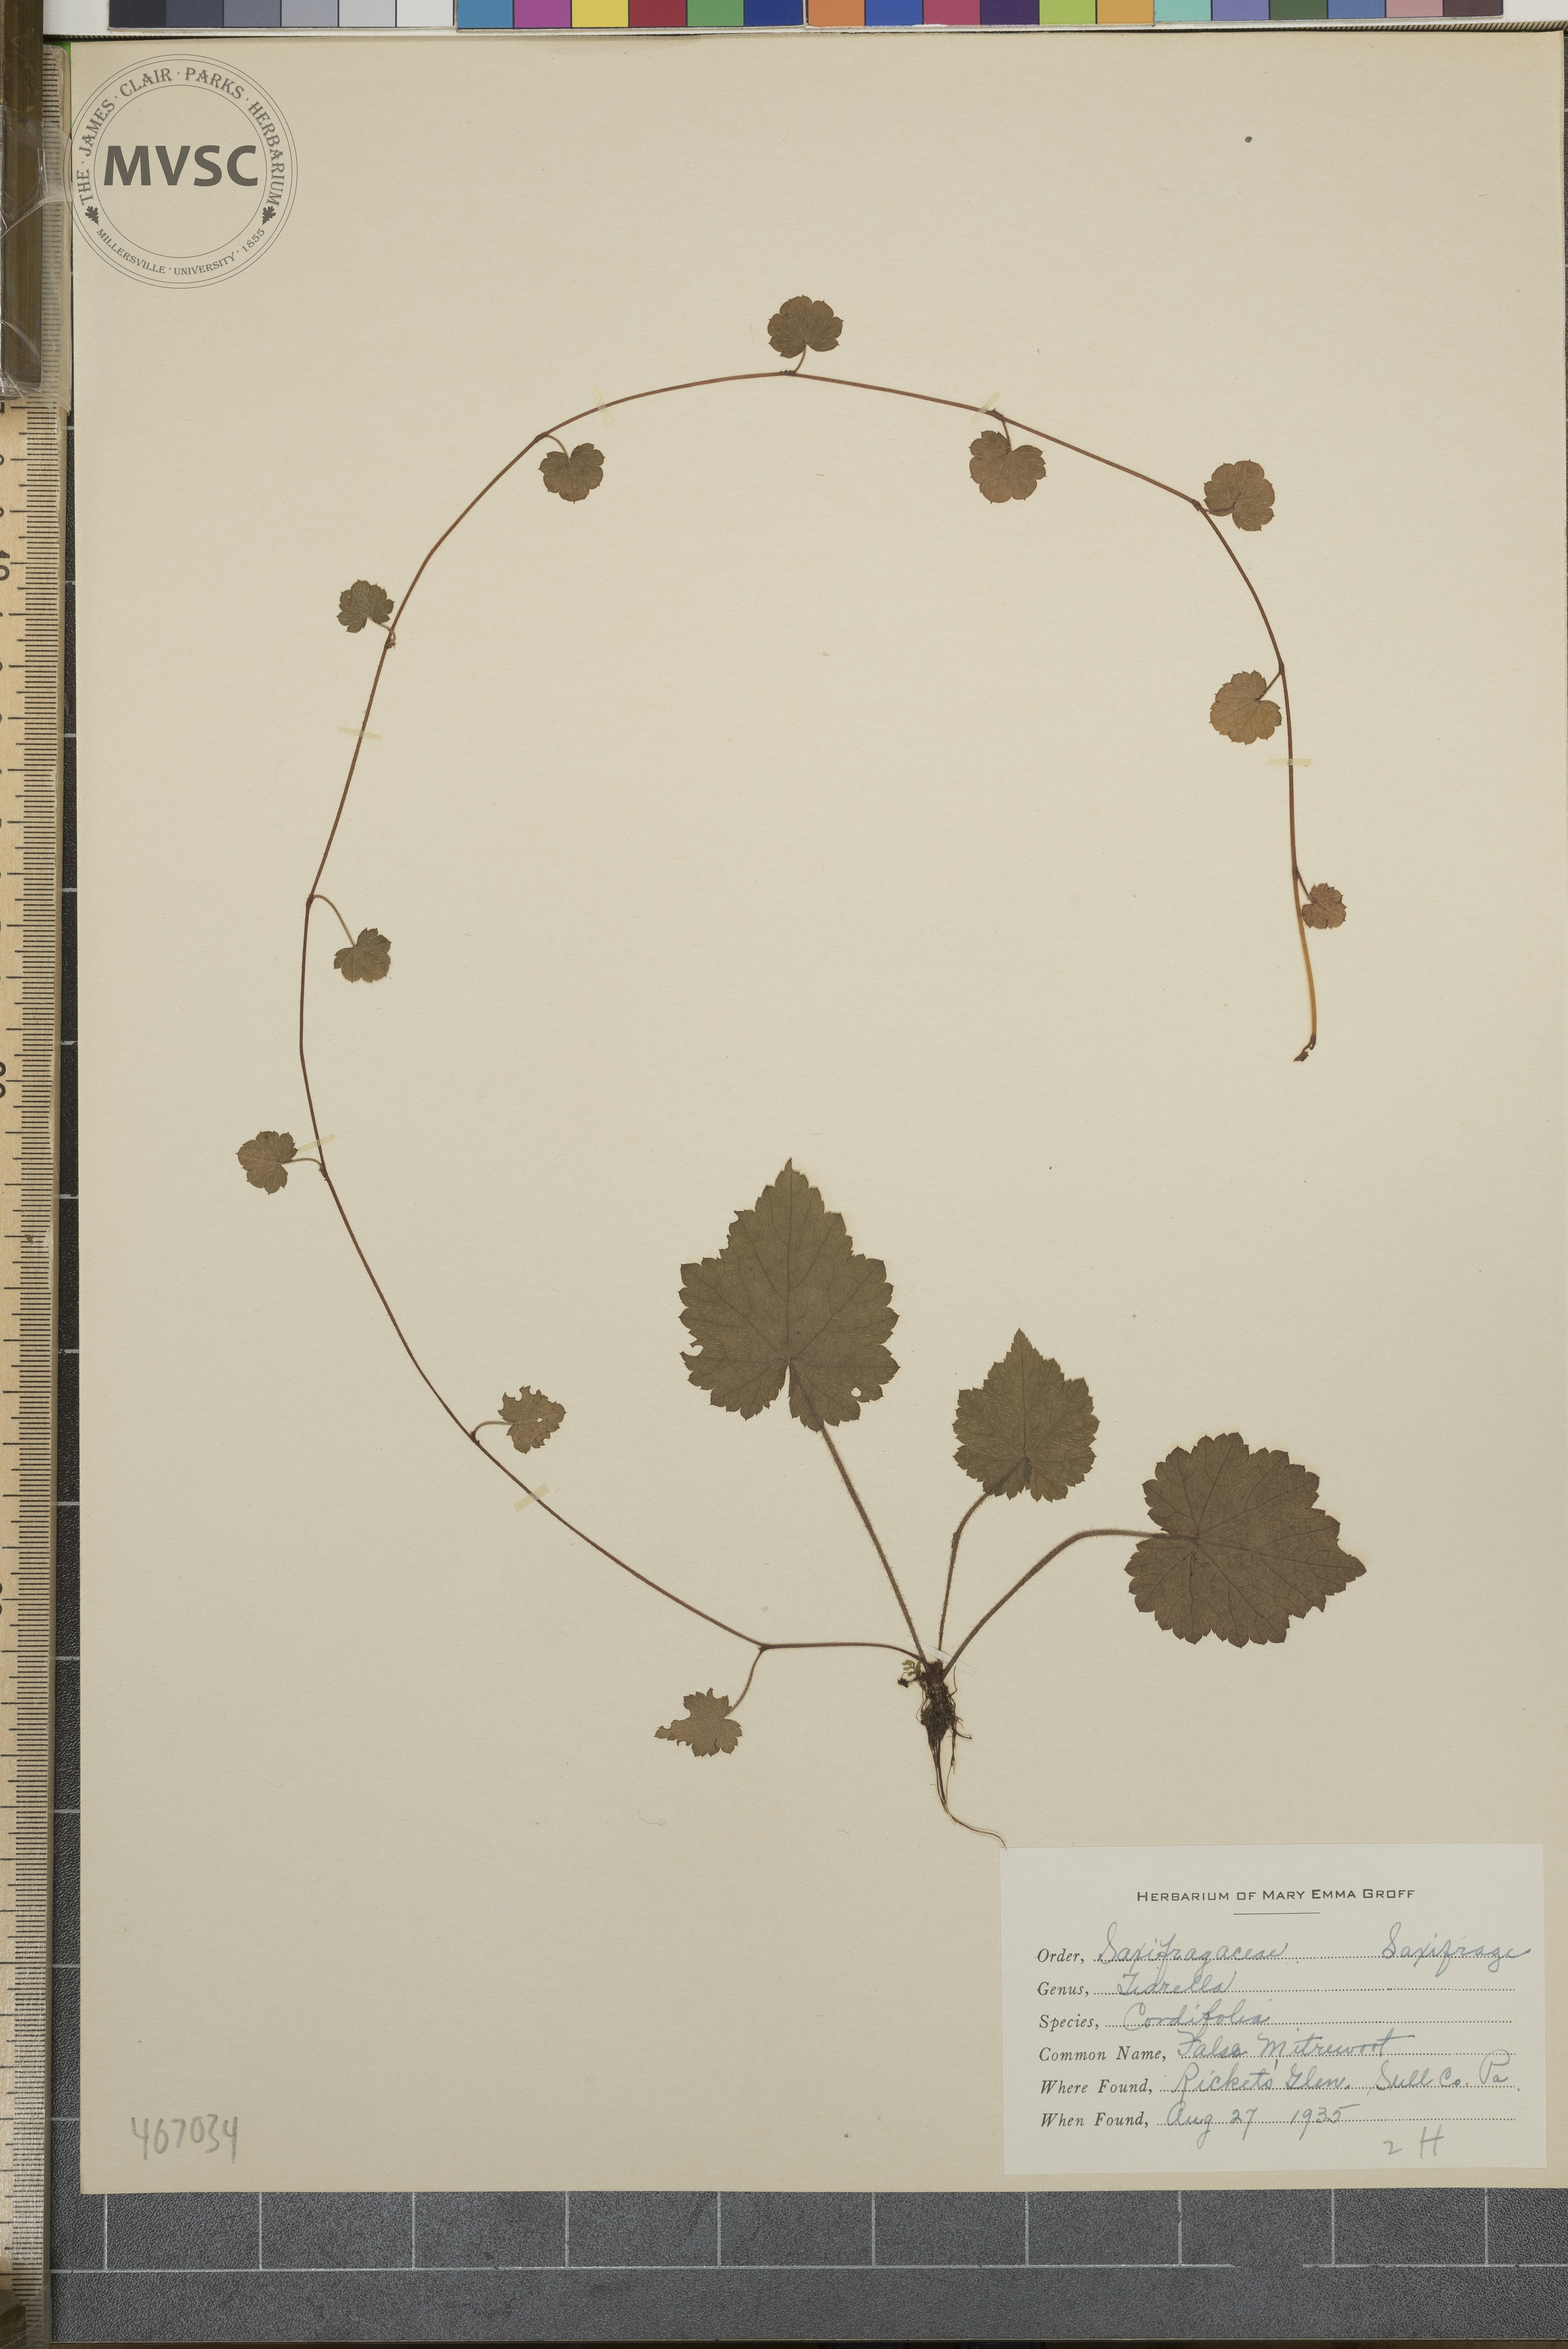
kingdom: Plantae
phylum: Tracheophyta
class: Magnoliopsida
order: Saxifragales
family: Saxifragaceae
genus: Tiarella
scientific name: Tiarella cordifolia
